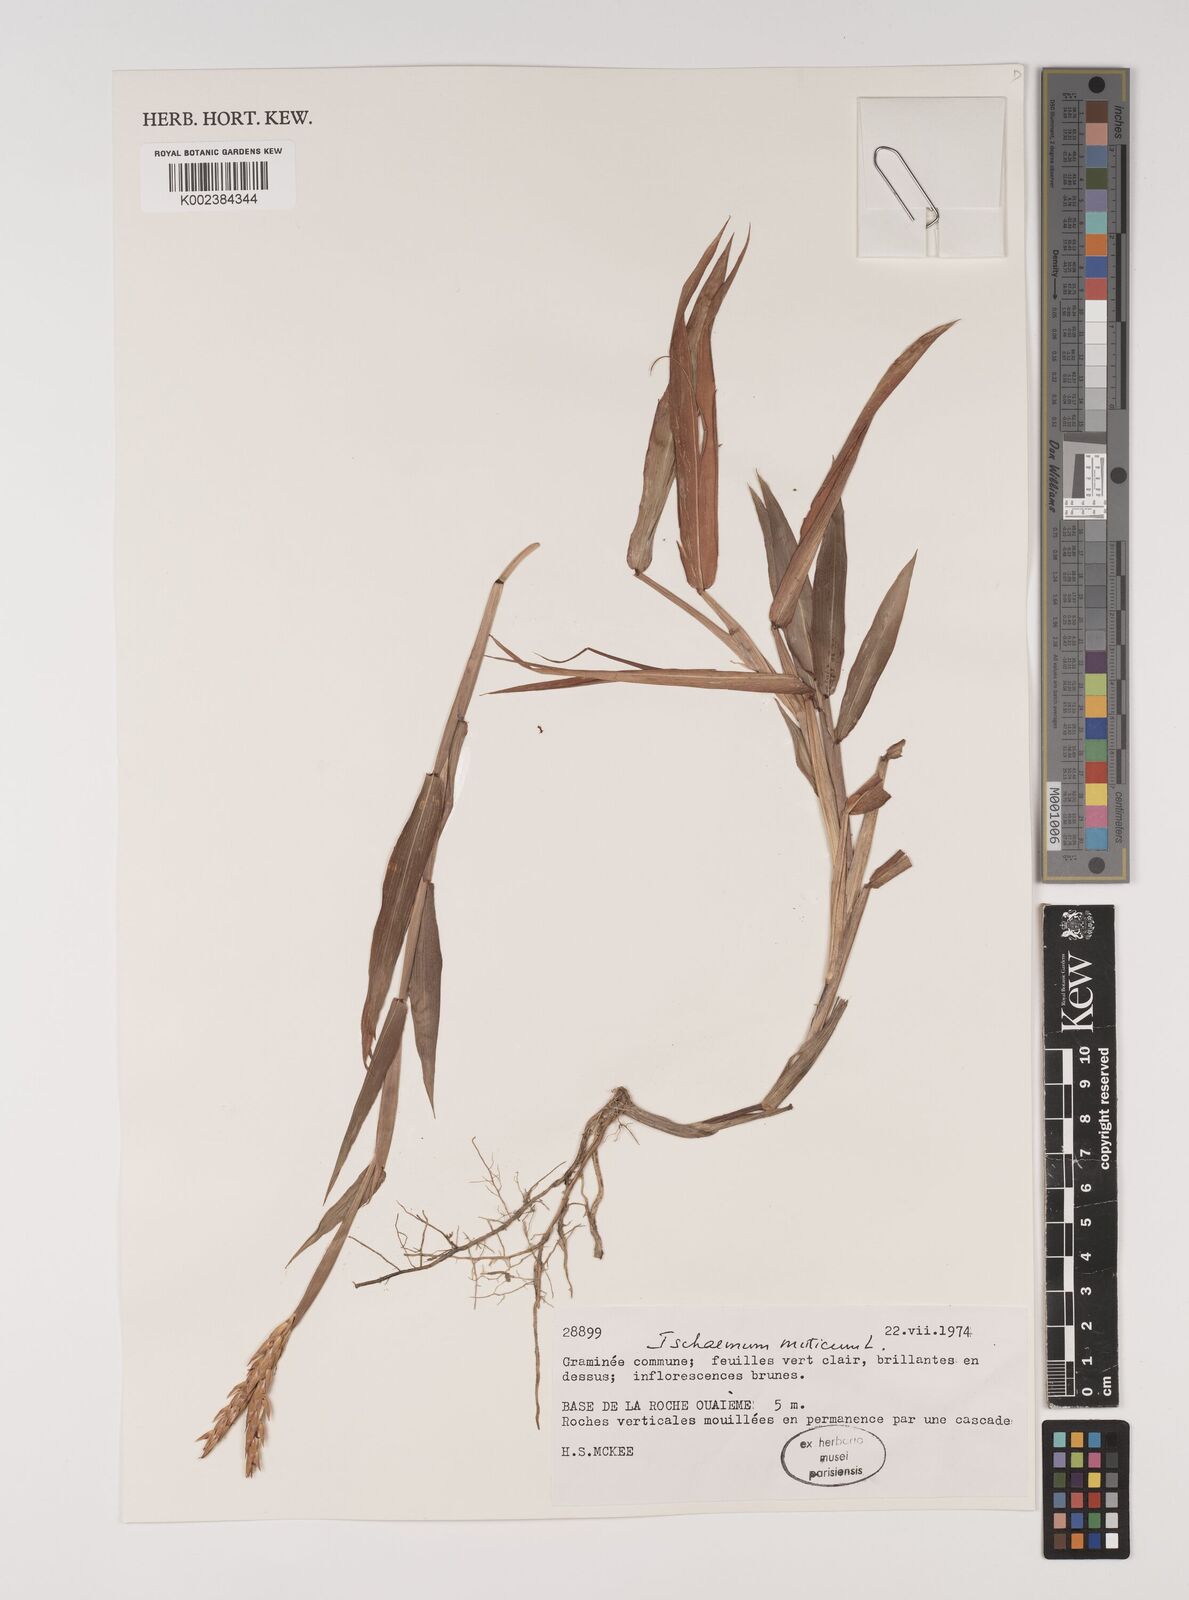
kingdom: Plantae
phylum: Tracheophyta
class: Liliopsida
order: Poales
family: Poaceae
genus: Ischaemum
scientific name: Ischaemum muticum
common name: Drought grass
